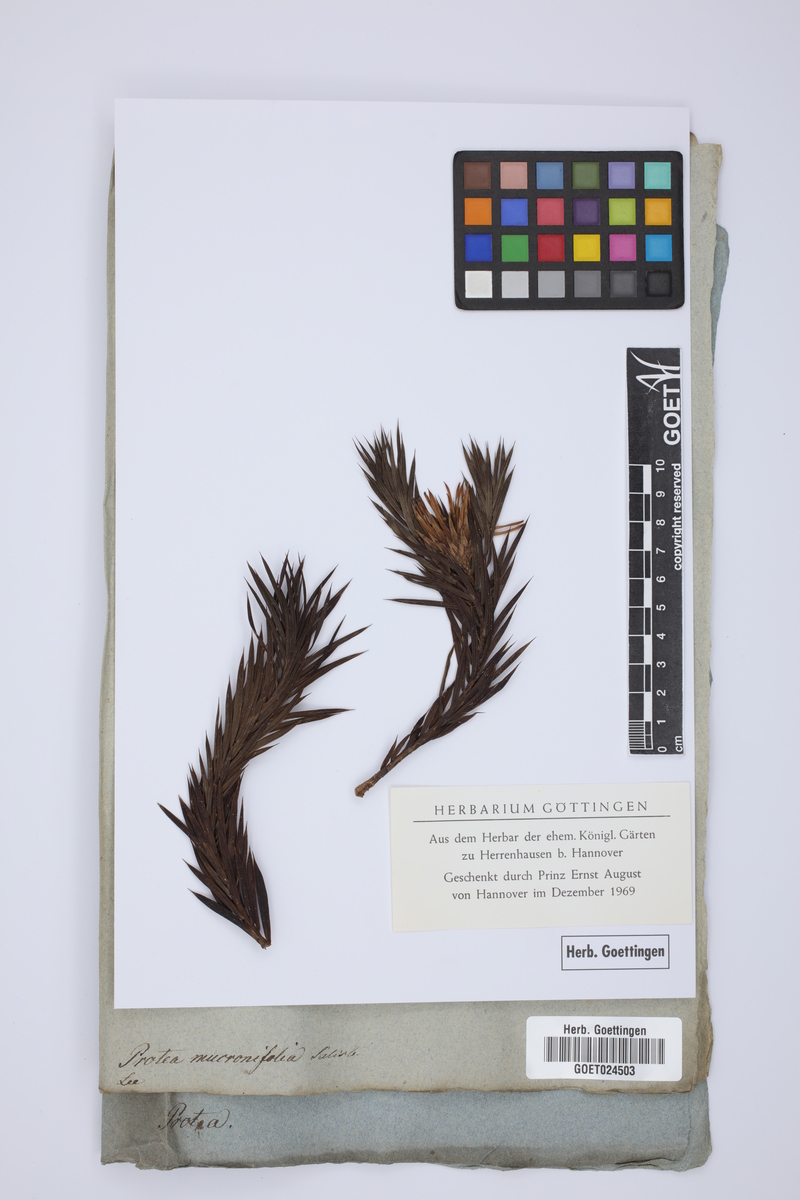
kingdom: Plantae
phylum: Tracheophyta
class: Magnoliopsida
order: Proteales
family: Proteaceae
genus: Protea
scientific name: Protea mucronifolia
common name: Dagger-leaf sugarbush
